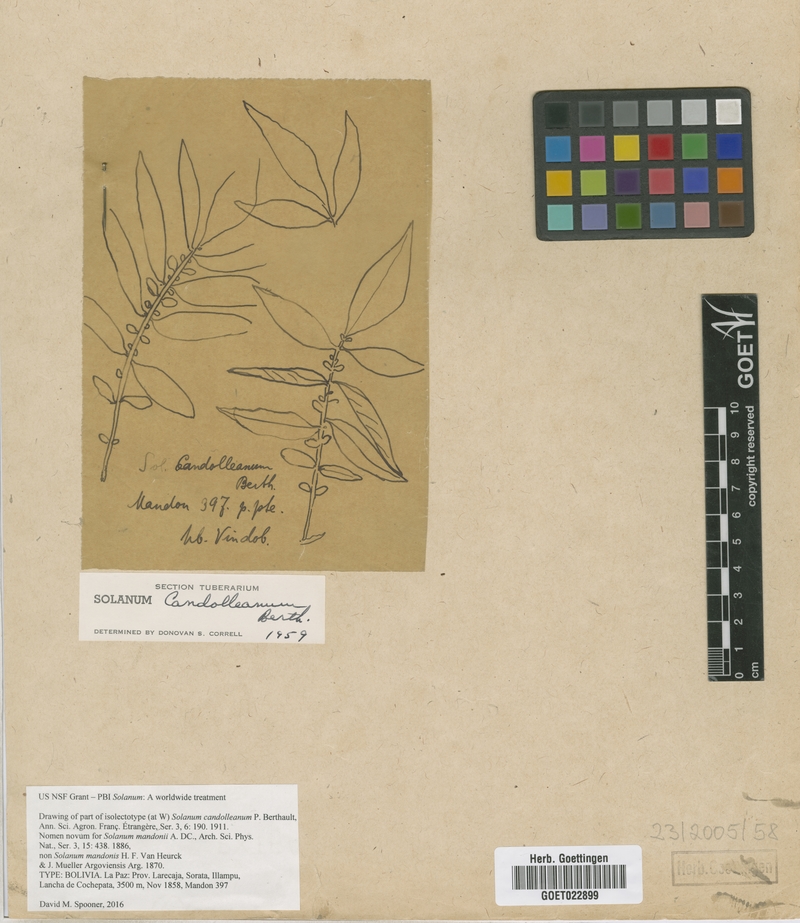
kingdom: Plantae
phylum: Tracheophyta
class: Magnoliopsida
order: Solanales
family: Solanaceae
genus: Solanum
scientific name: Solanum candolleanum
